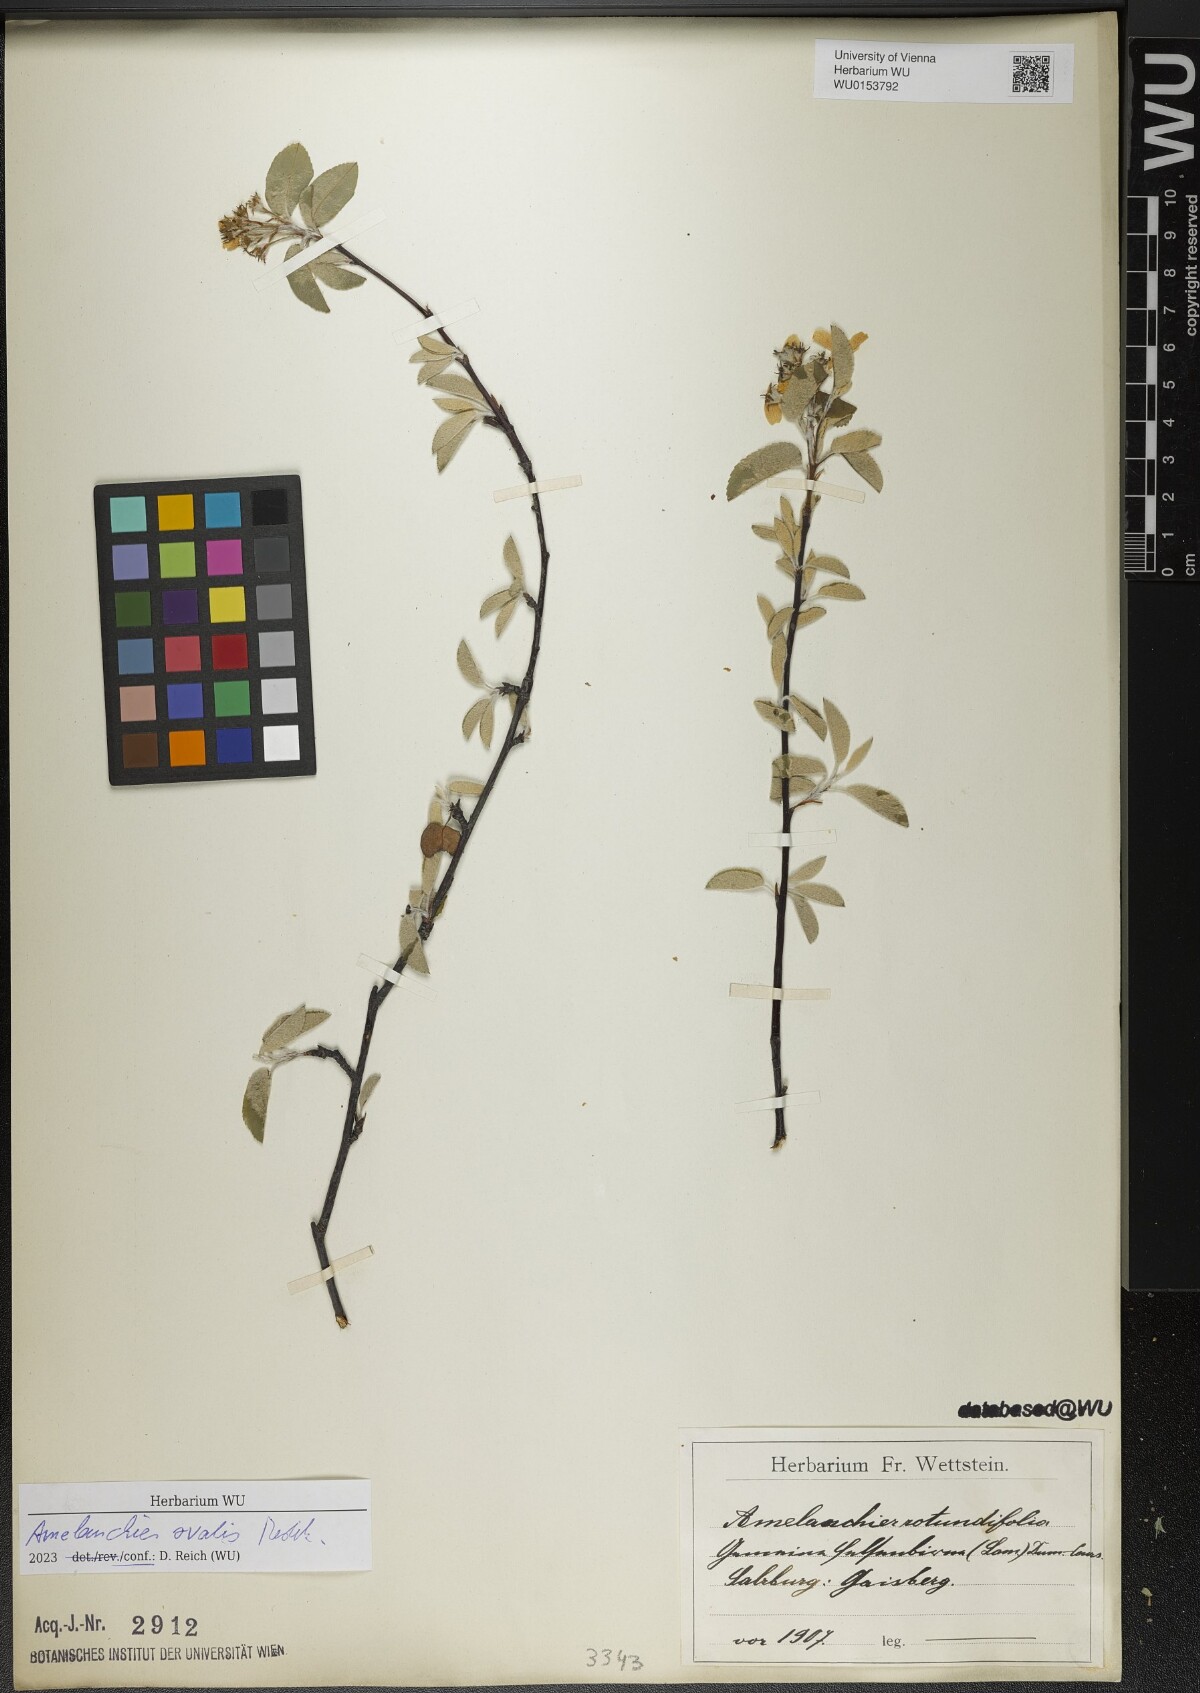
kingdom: Plantae
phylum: Tracheophyta
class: Magnoliopsida
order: Rosales
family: Rosaceae
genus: Amelanchier
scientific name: Amelanchier ovalis
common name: Serviceberry
